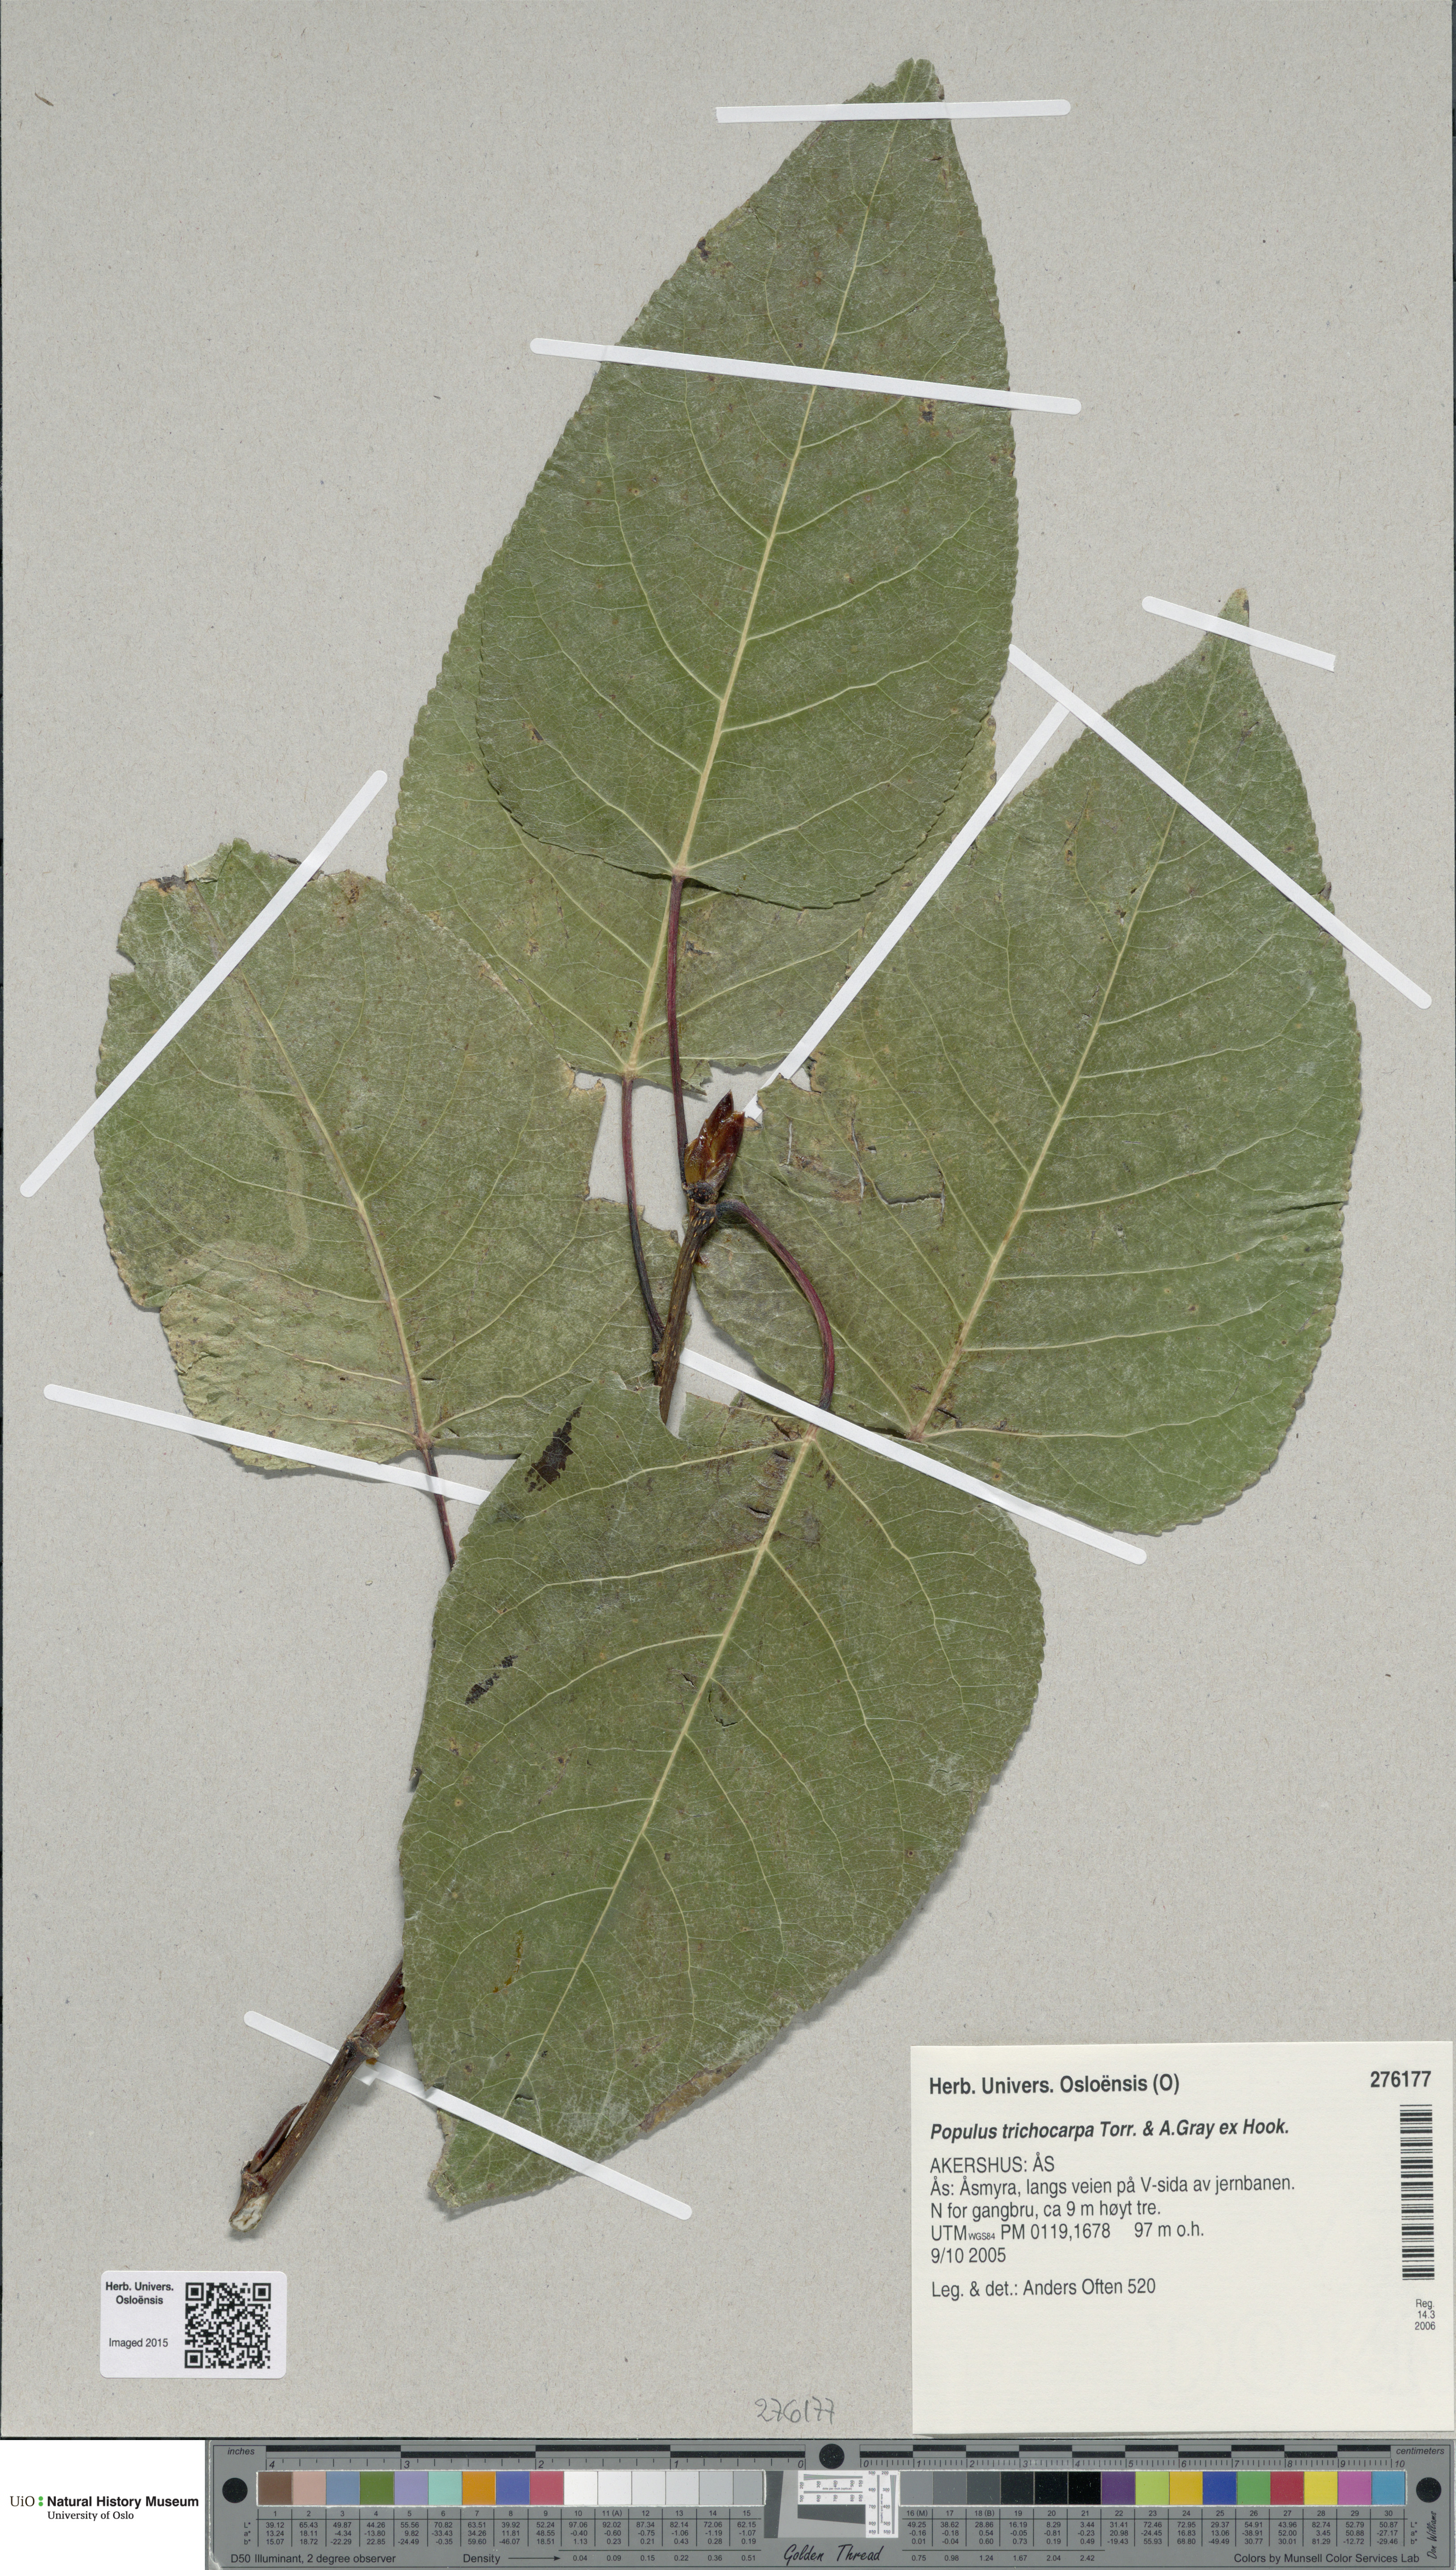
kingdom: Plantae
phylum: Tracheophyta
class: Magnoliopsida
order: Malpighiales
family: Salicaceae
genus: Populus
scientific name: Populus balsamifera
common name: Balsam poplar
